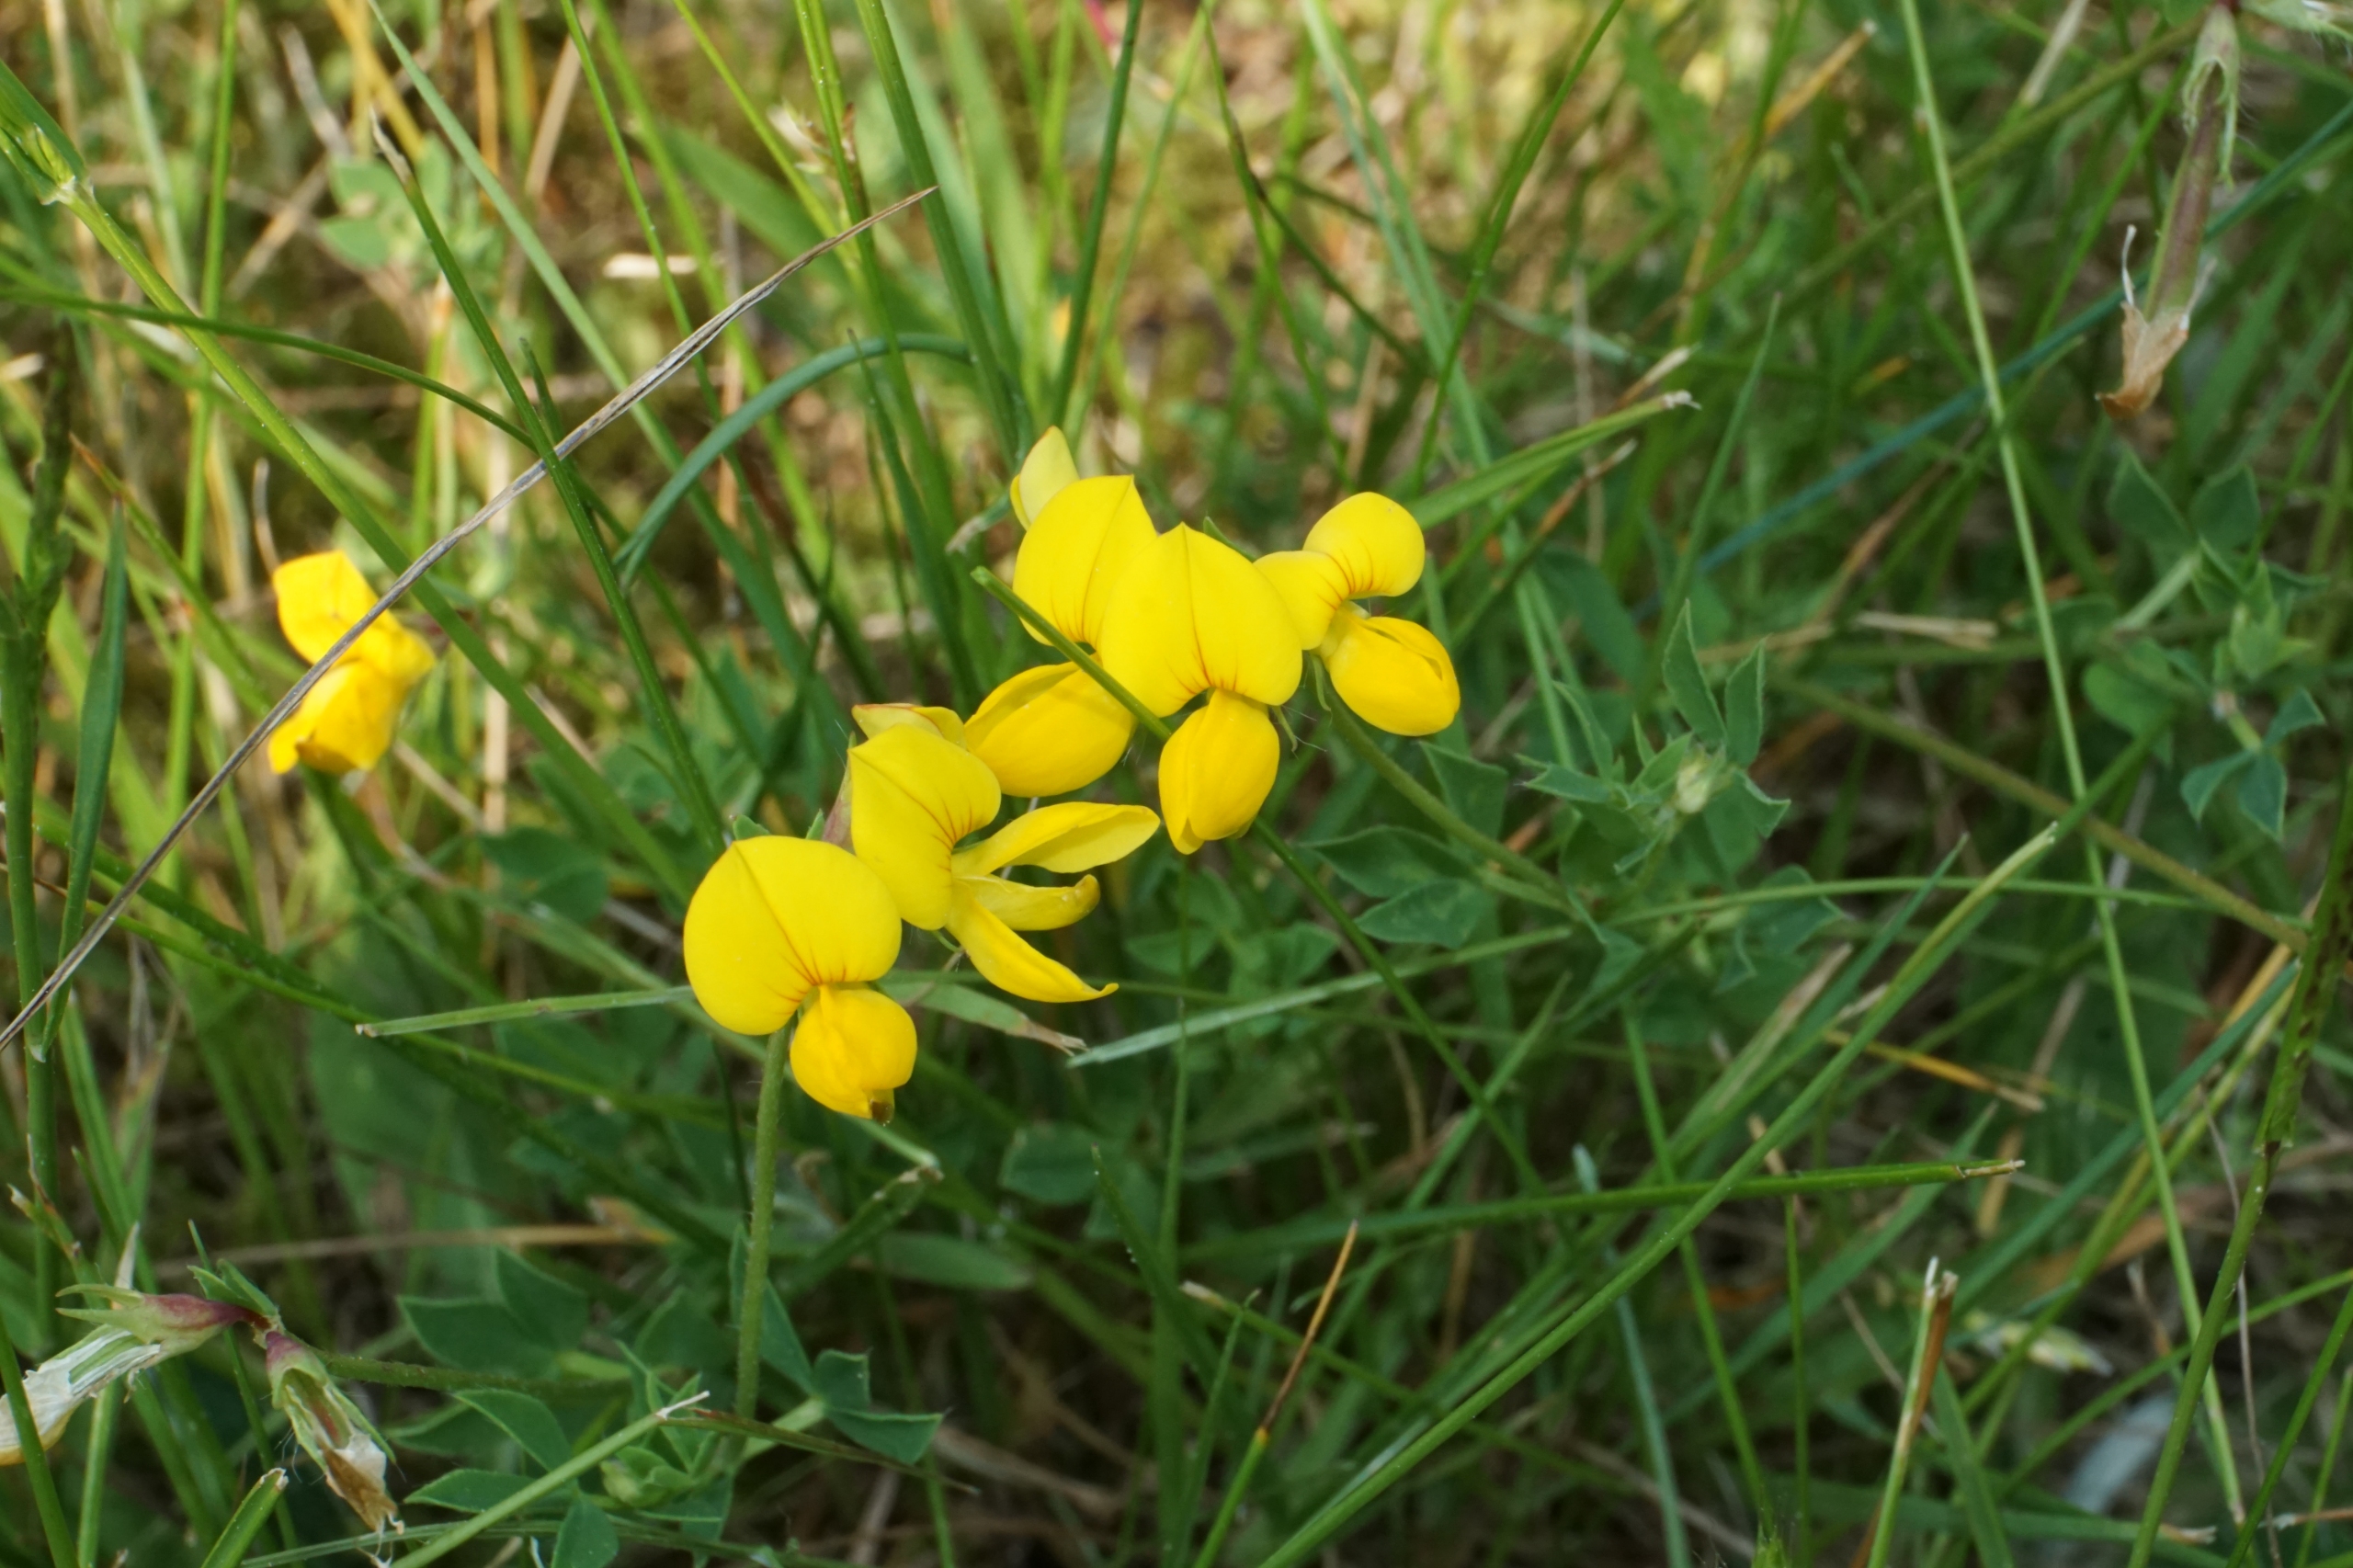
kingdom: Plantae
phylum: Tracheophyta
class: Magnoliopsida
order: Fabales
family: Fabaceae
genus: Lotus
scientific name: Lotus corniculatus
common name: Almindelig kællingetand
